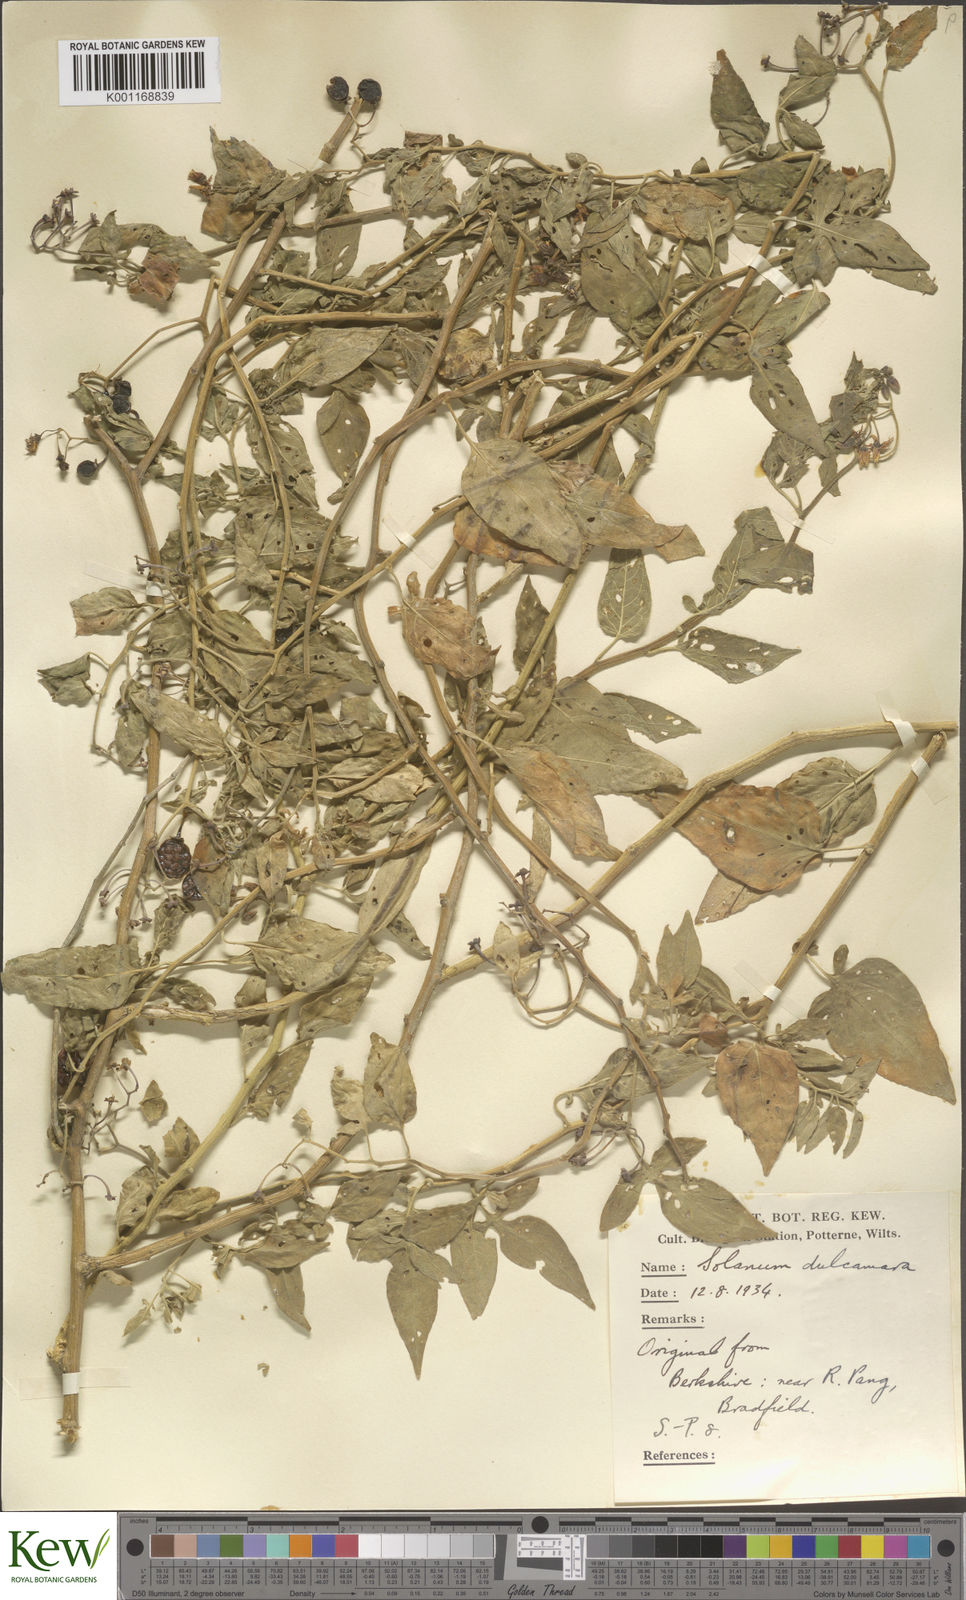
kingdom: Plantae
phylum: Tracheophyta
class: Magnoliopsida
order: Solanales
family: Solanaceae
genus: Solanum
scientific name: Solanum dulcamara
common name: Climbing nightshade
